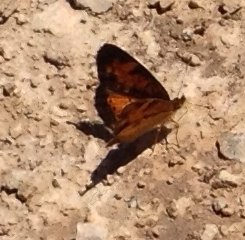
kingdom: Animalia
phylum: Arthropoda
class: Insecta
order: Lepidoptera
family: Nymphalidae
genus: Phyciodes
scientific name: Phyciodes tharos
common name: Pearl Crescent
